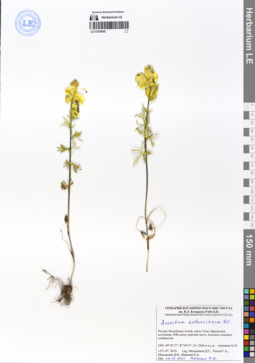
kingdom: Plantae
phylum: Tracheophyta
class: Magnoliopsida
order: Ranunculales
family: Ranunculaceae
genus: Aconitum
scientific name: Aconitum anthoroideum
